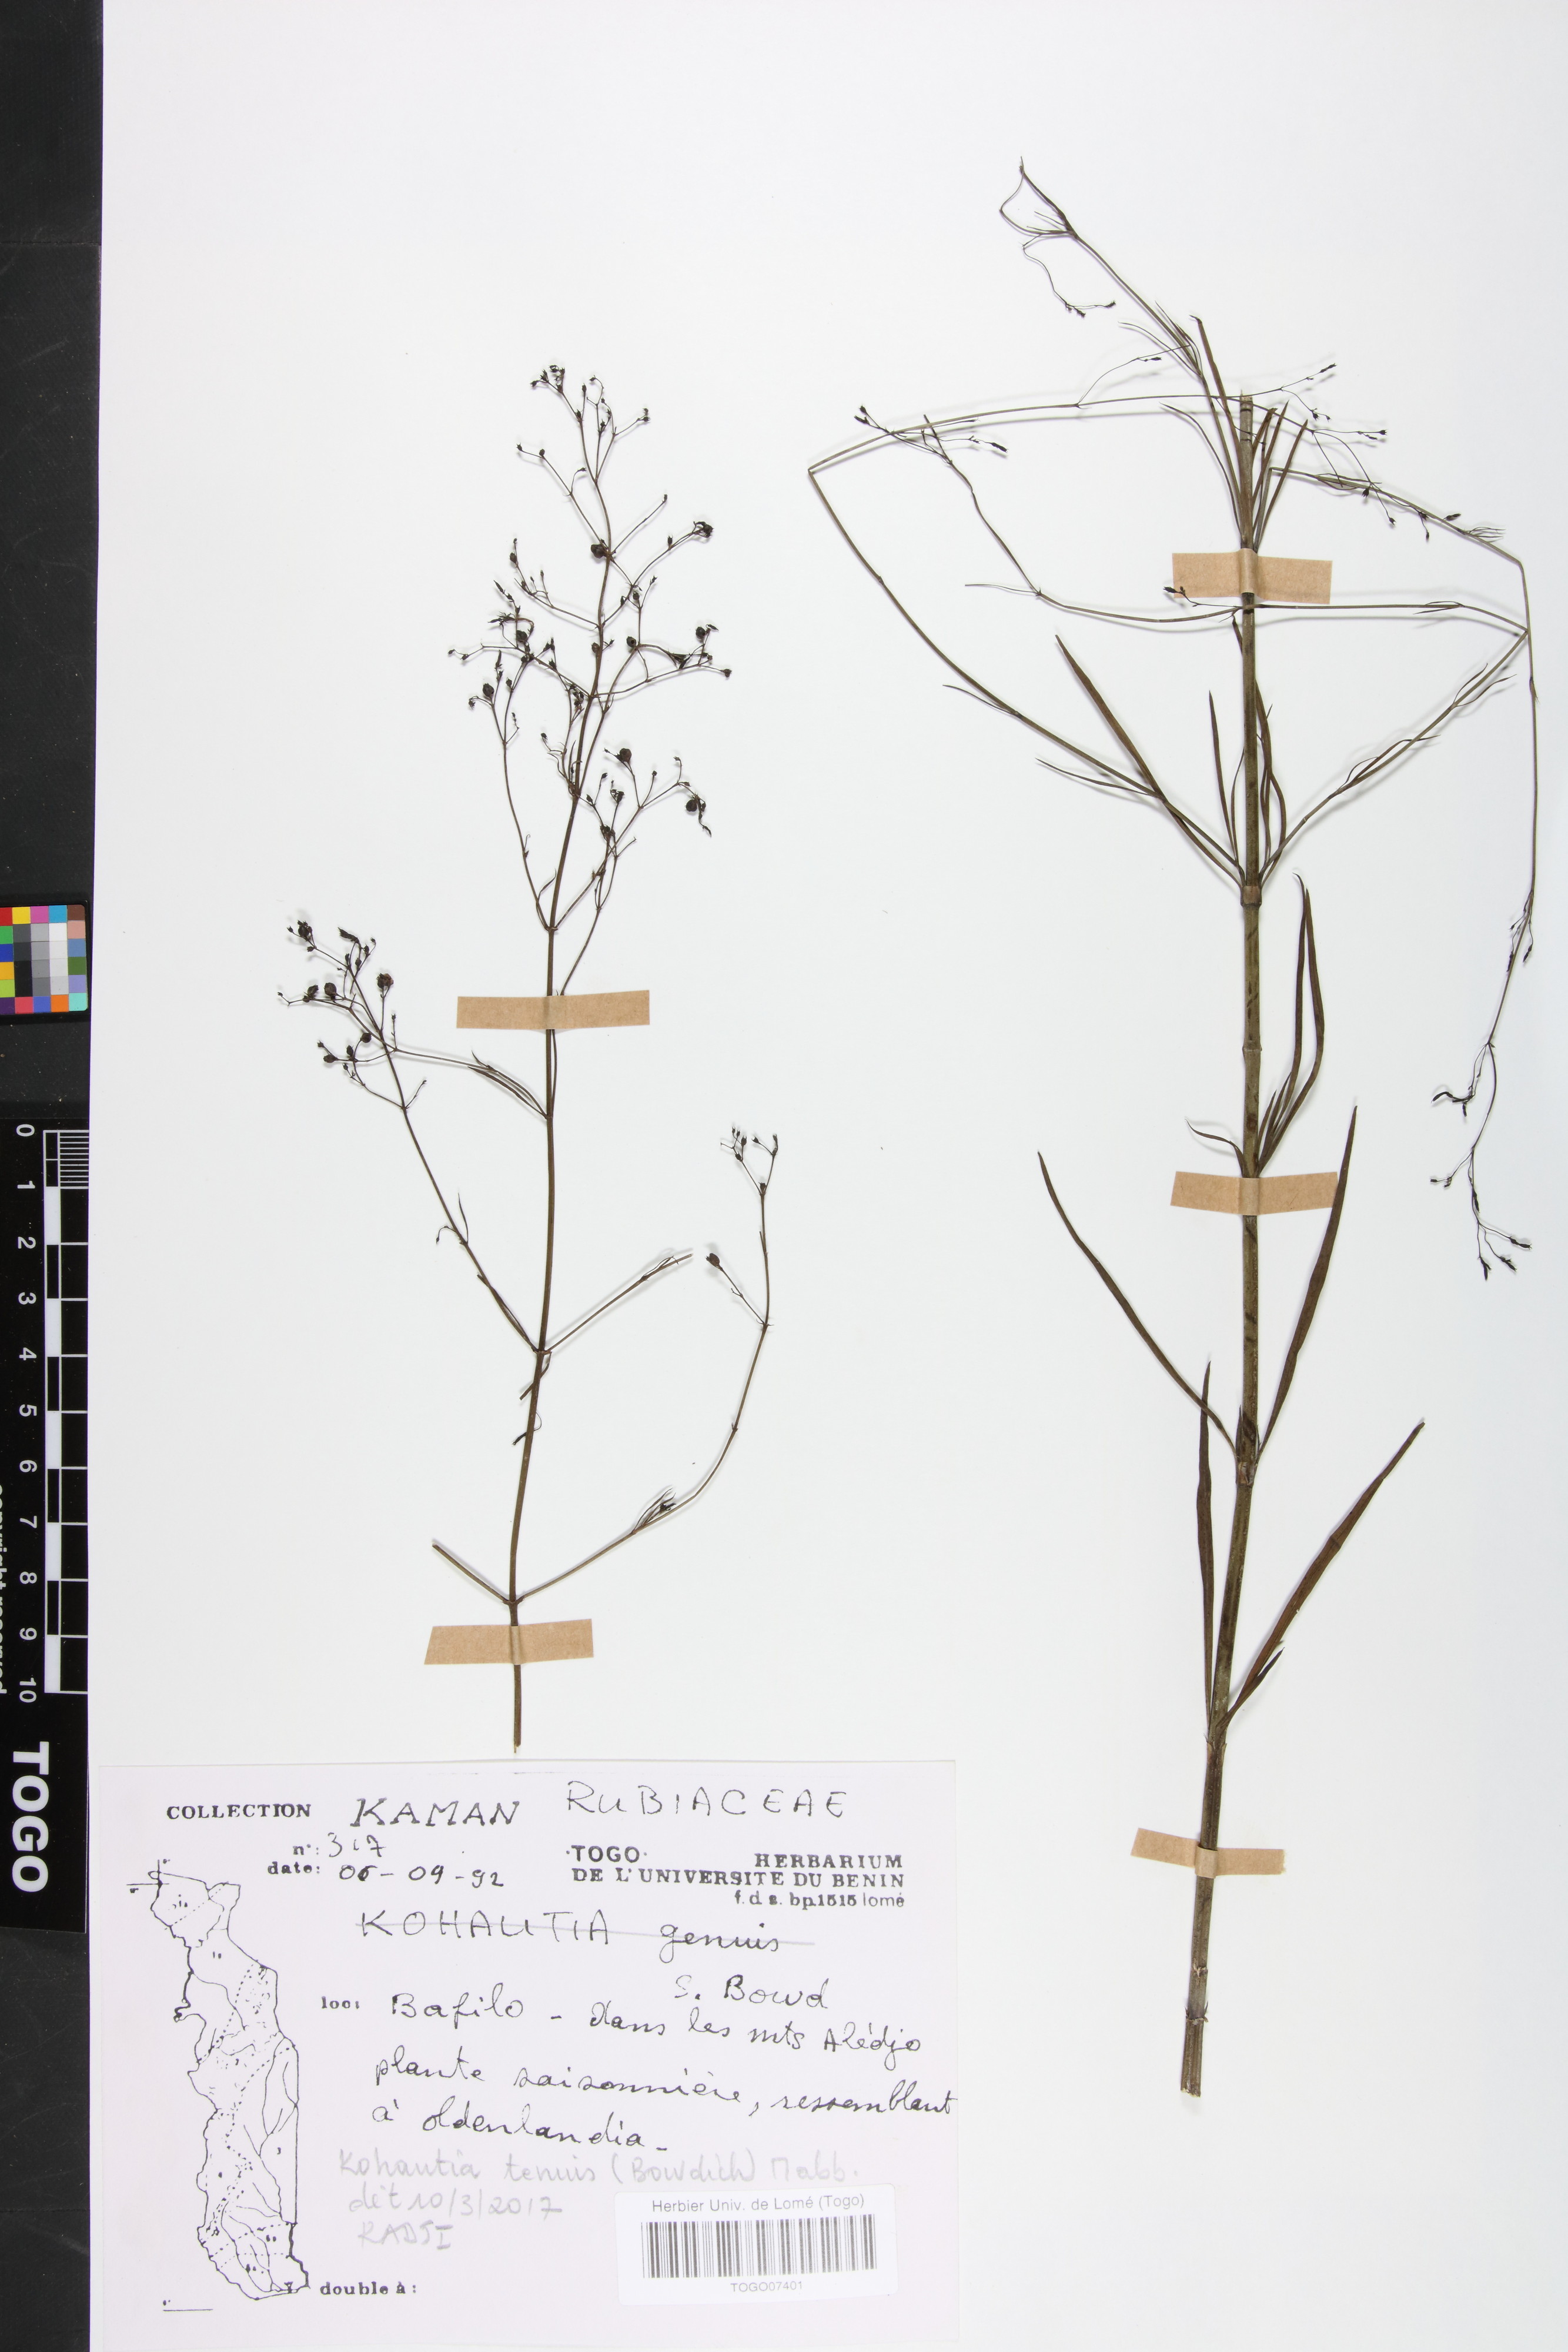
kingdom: Plantae
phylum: Tracheophyta
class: Magnoliopsida
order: Gentianales
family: Rubiaceae
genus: Kohautia
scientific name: Kohautia
